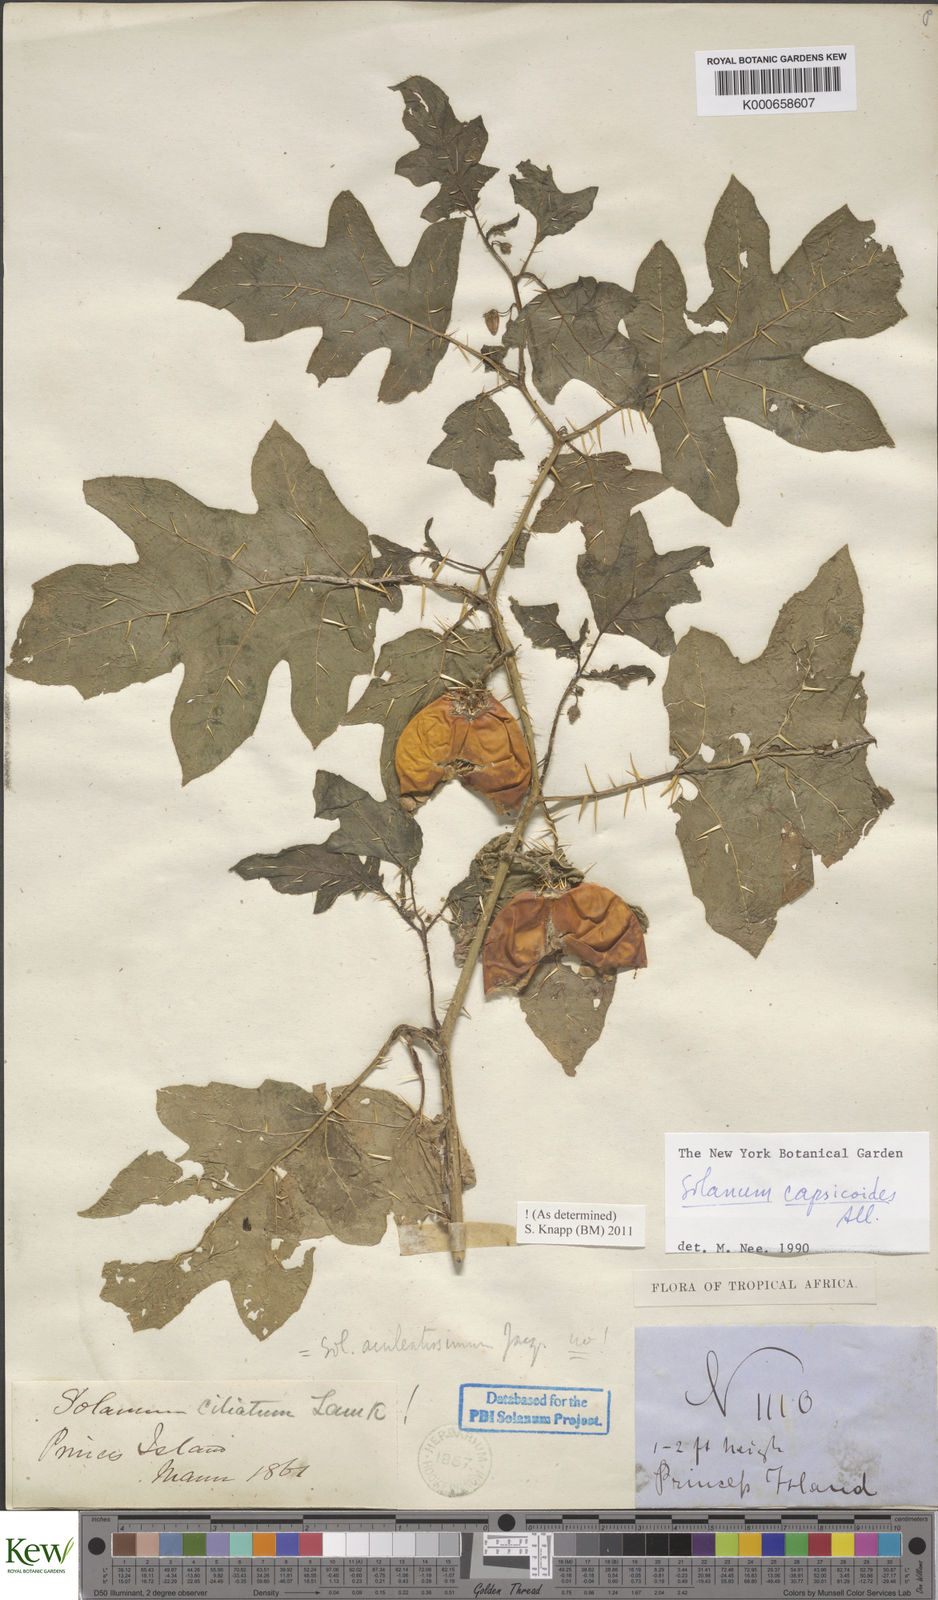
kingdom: Plantae
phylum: Tracheophyta
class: Magnoliopsida
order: Solanales
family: Solanaceae
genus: Solanum
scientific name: Solanum capsicoides
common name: Cockroach berry
